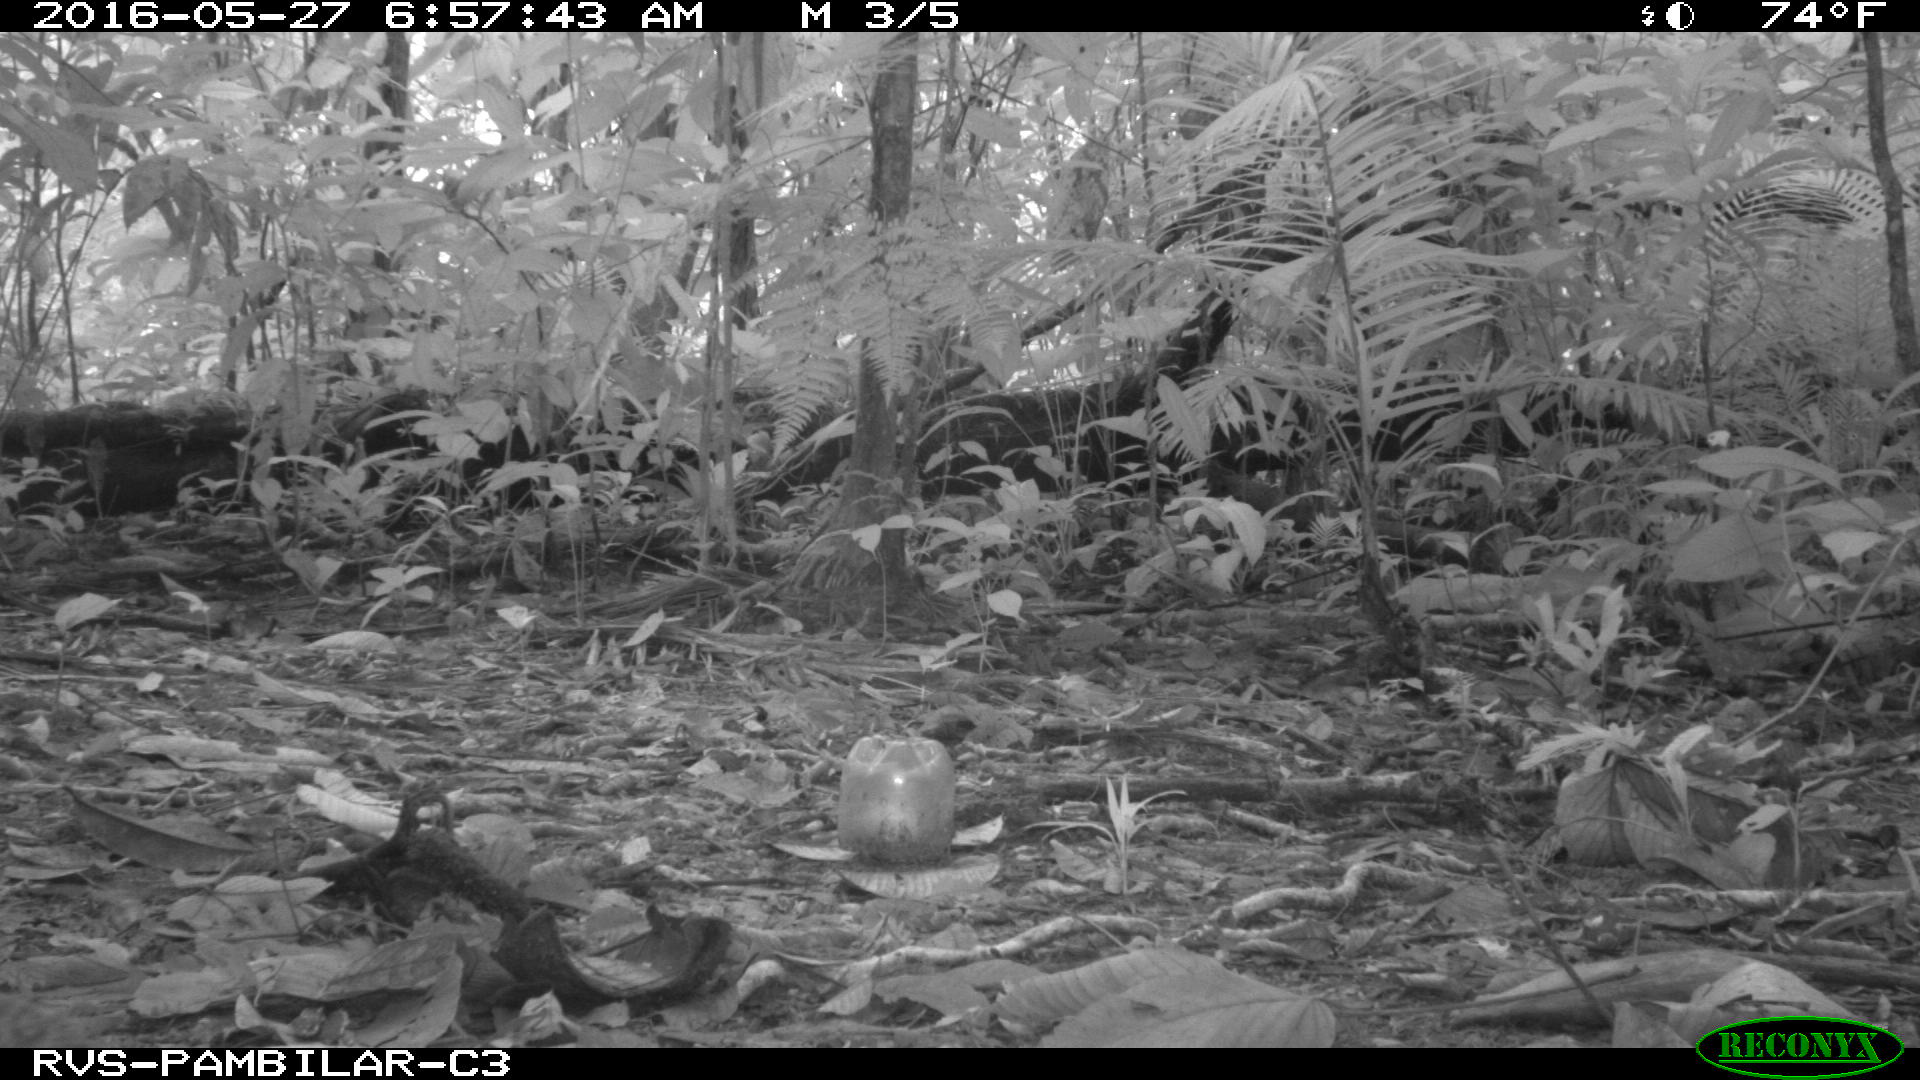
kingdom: Animalia
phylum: Chordata
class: Mammalia
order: Rodentia
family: Dasyproctidae
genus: Dasyprocta
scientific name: Dasyprocta punctata
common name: Central american agouti
